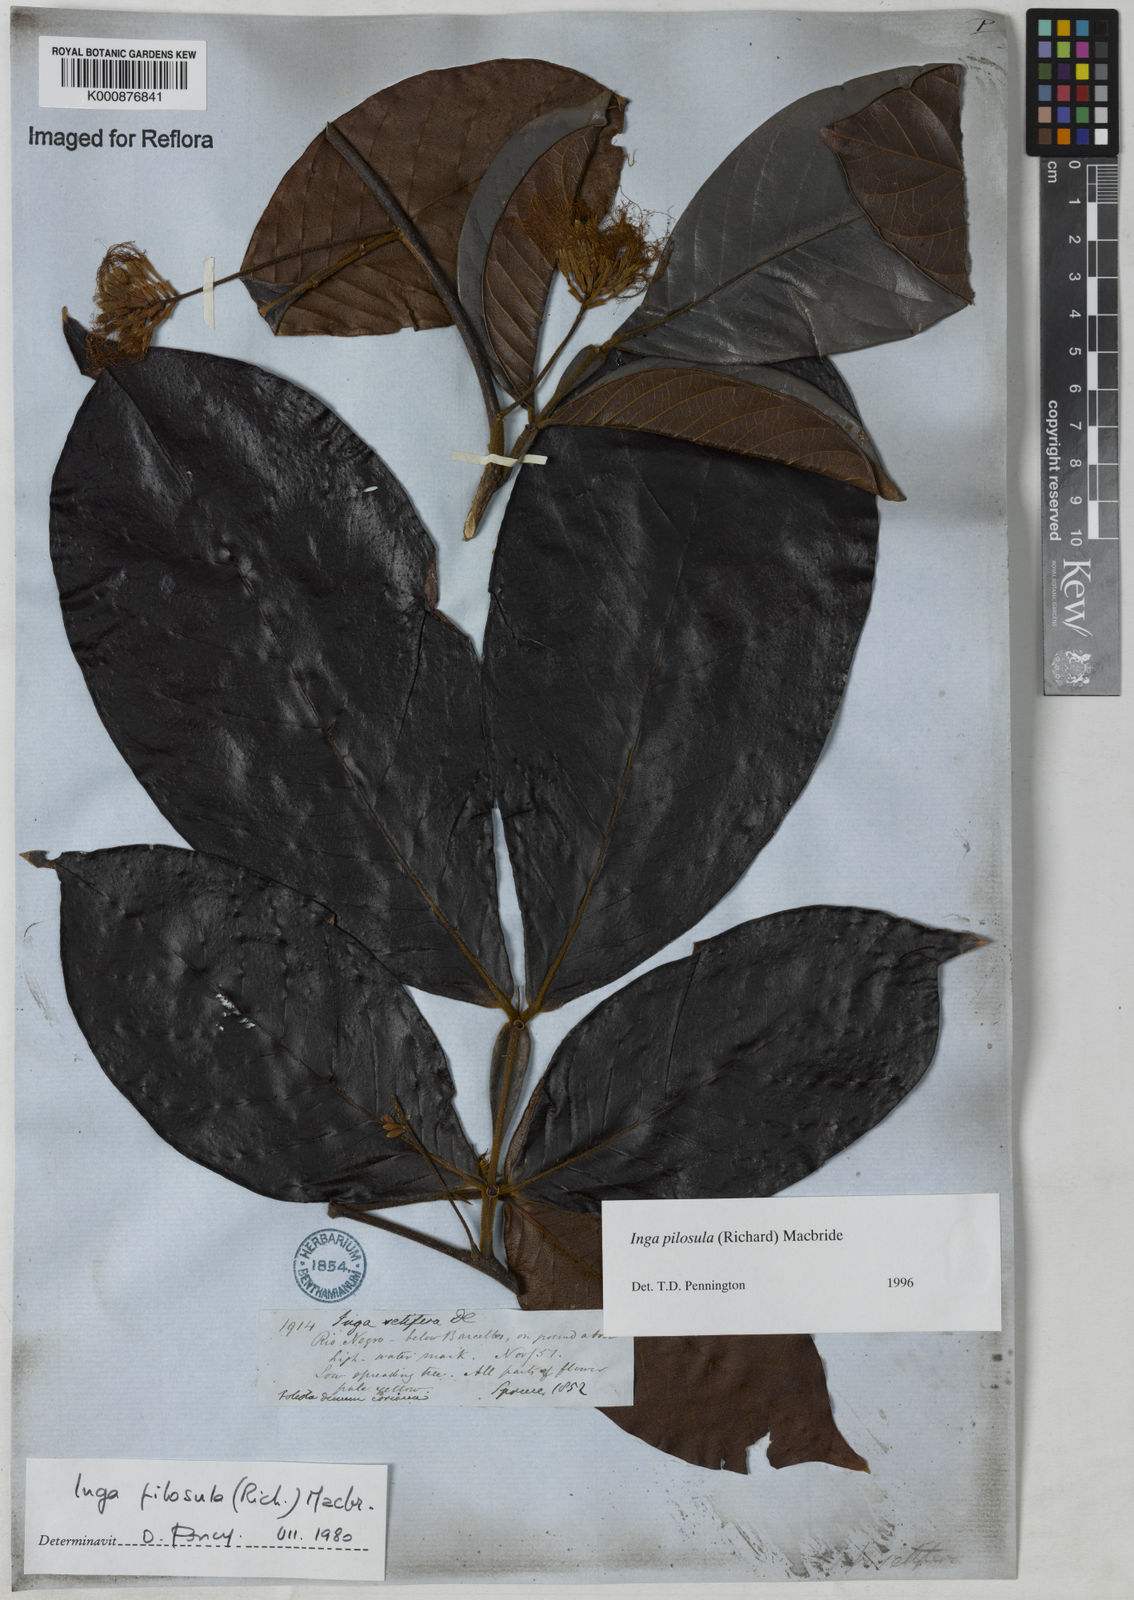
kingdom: Plantae
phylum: Tracheophyta
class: Magnoliopsida
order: Fabales
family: Fabaceae
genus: Inga
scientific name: Inga pilosula
